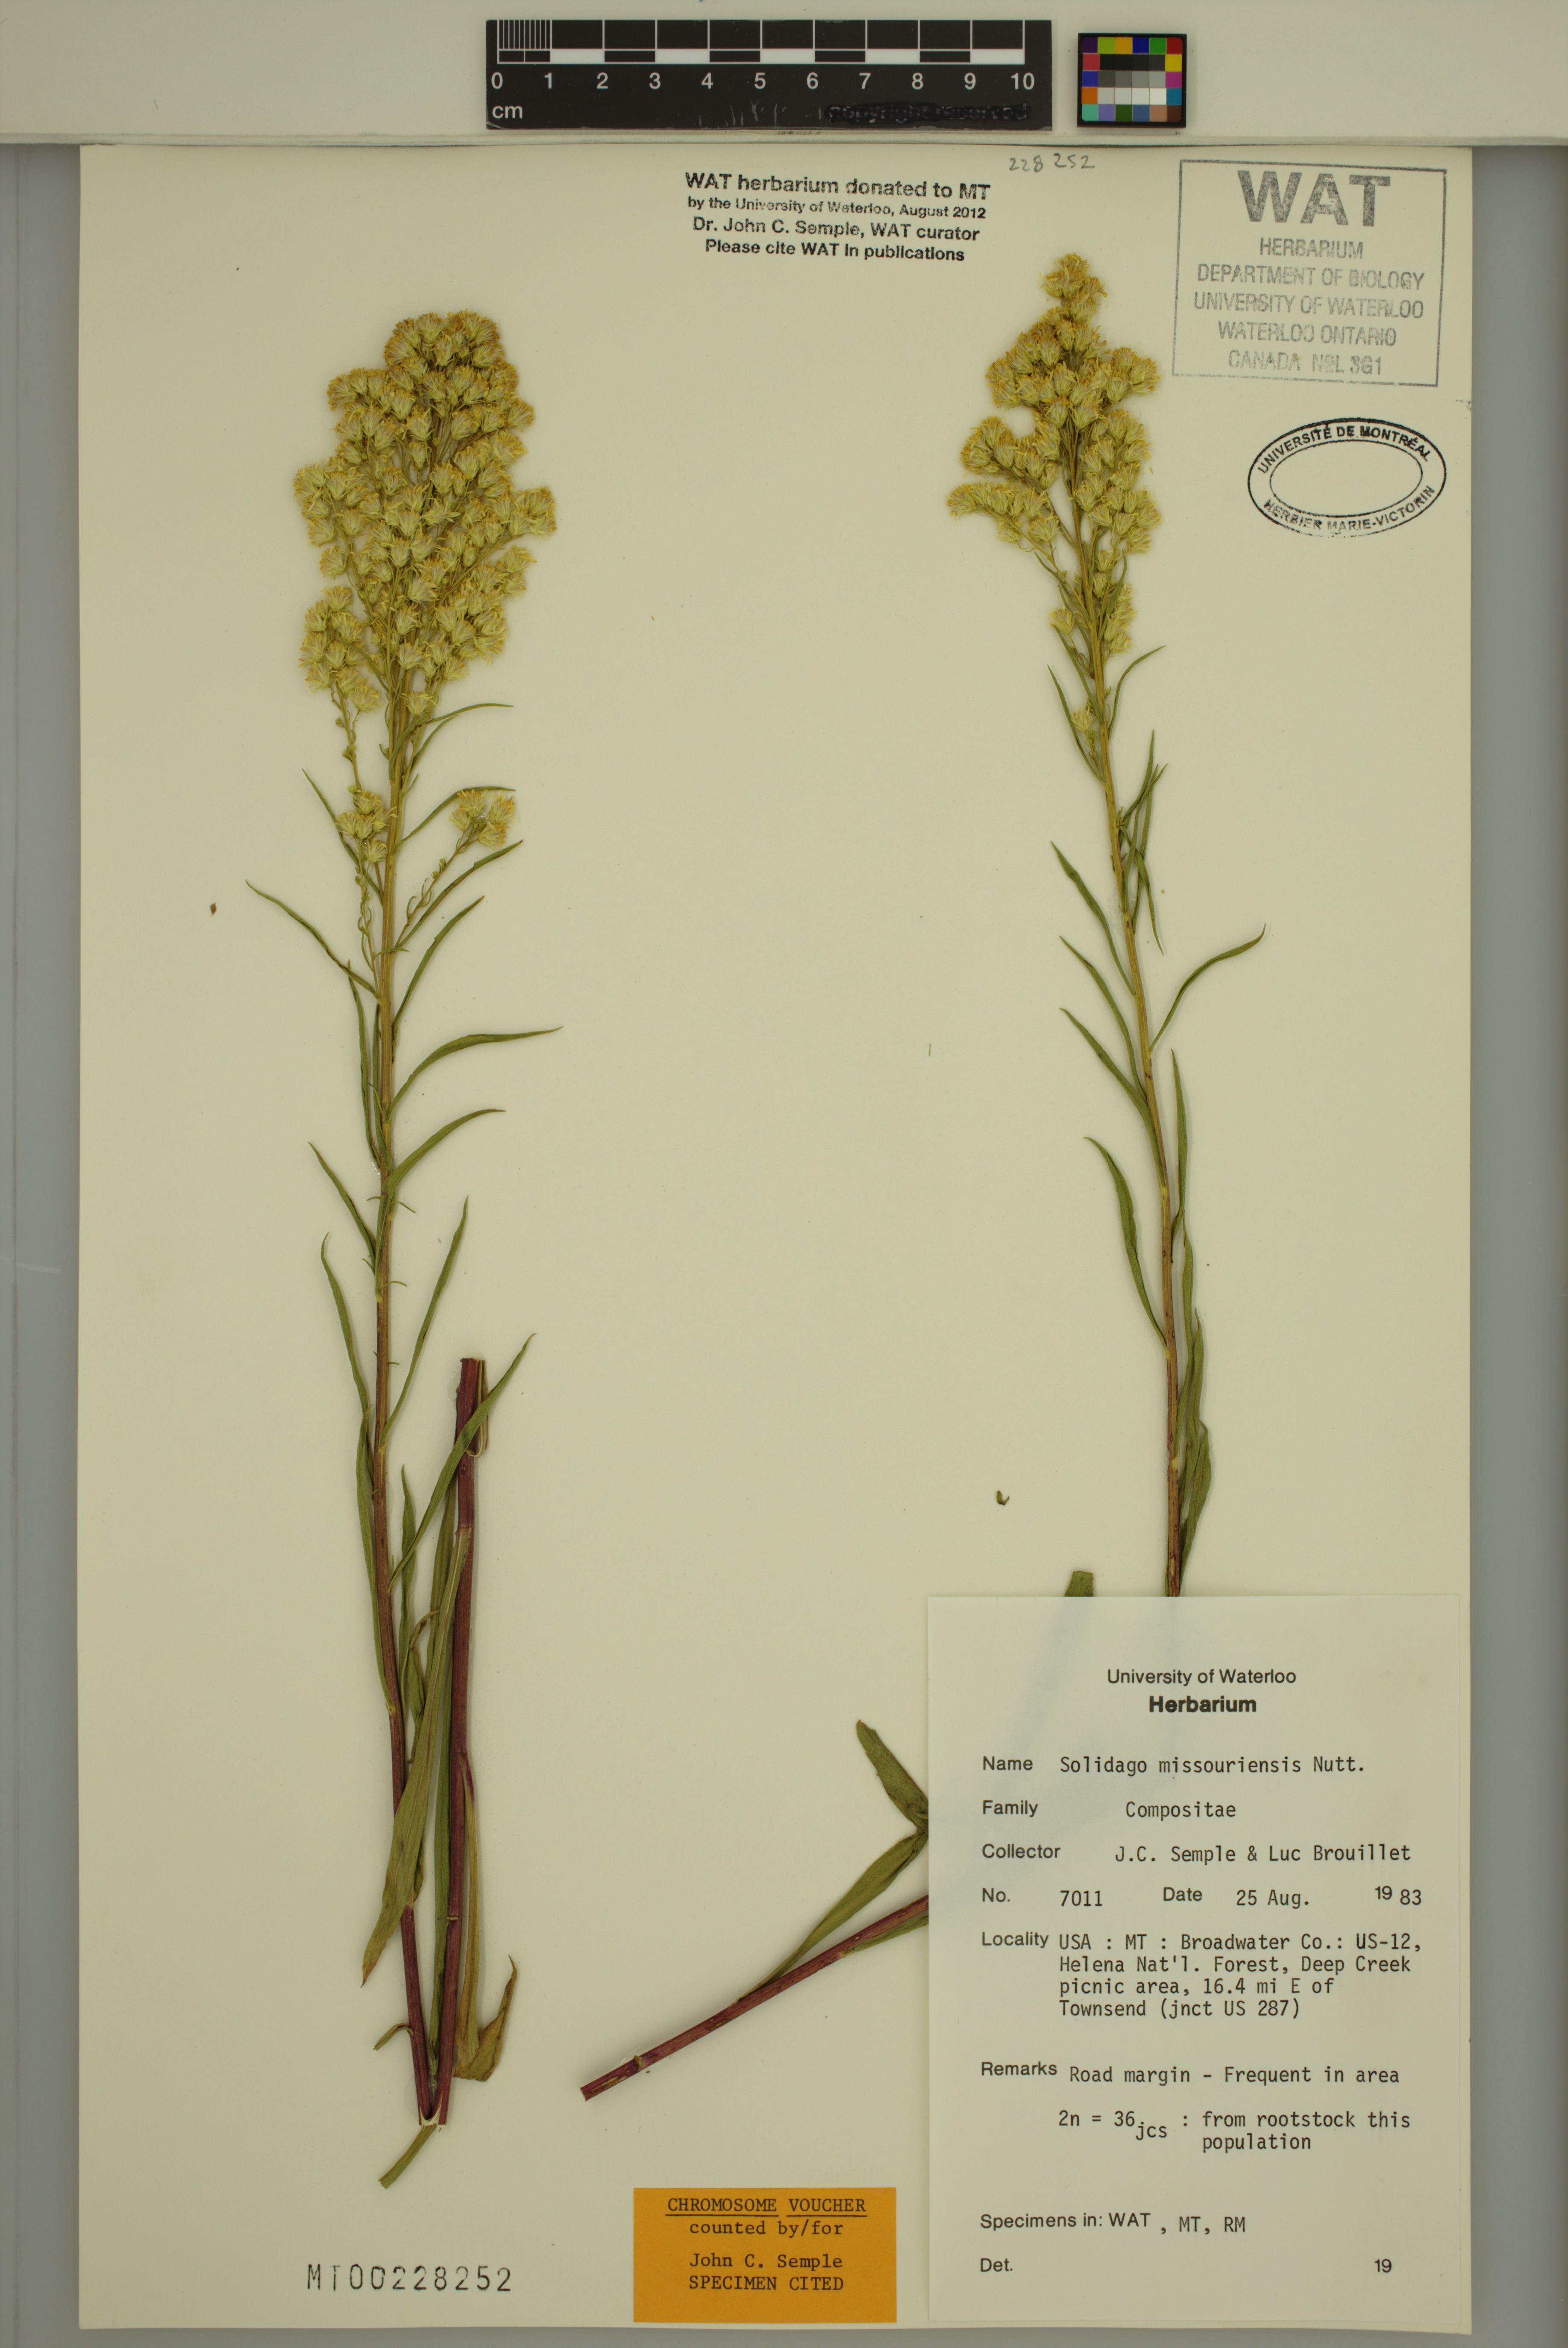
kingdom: Plantae
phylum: Tracheophyta
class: Magnoliopsida
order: Asterales
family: Asteraceae
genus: Solidago
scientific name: Solidago missouriensis
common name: Prairie goldenrod
